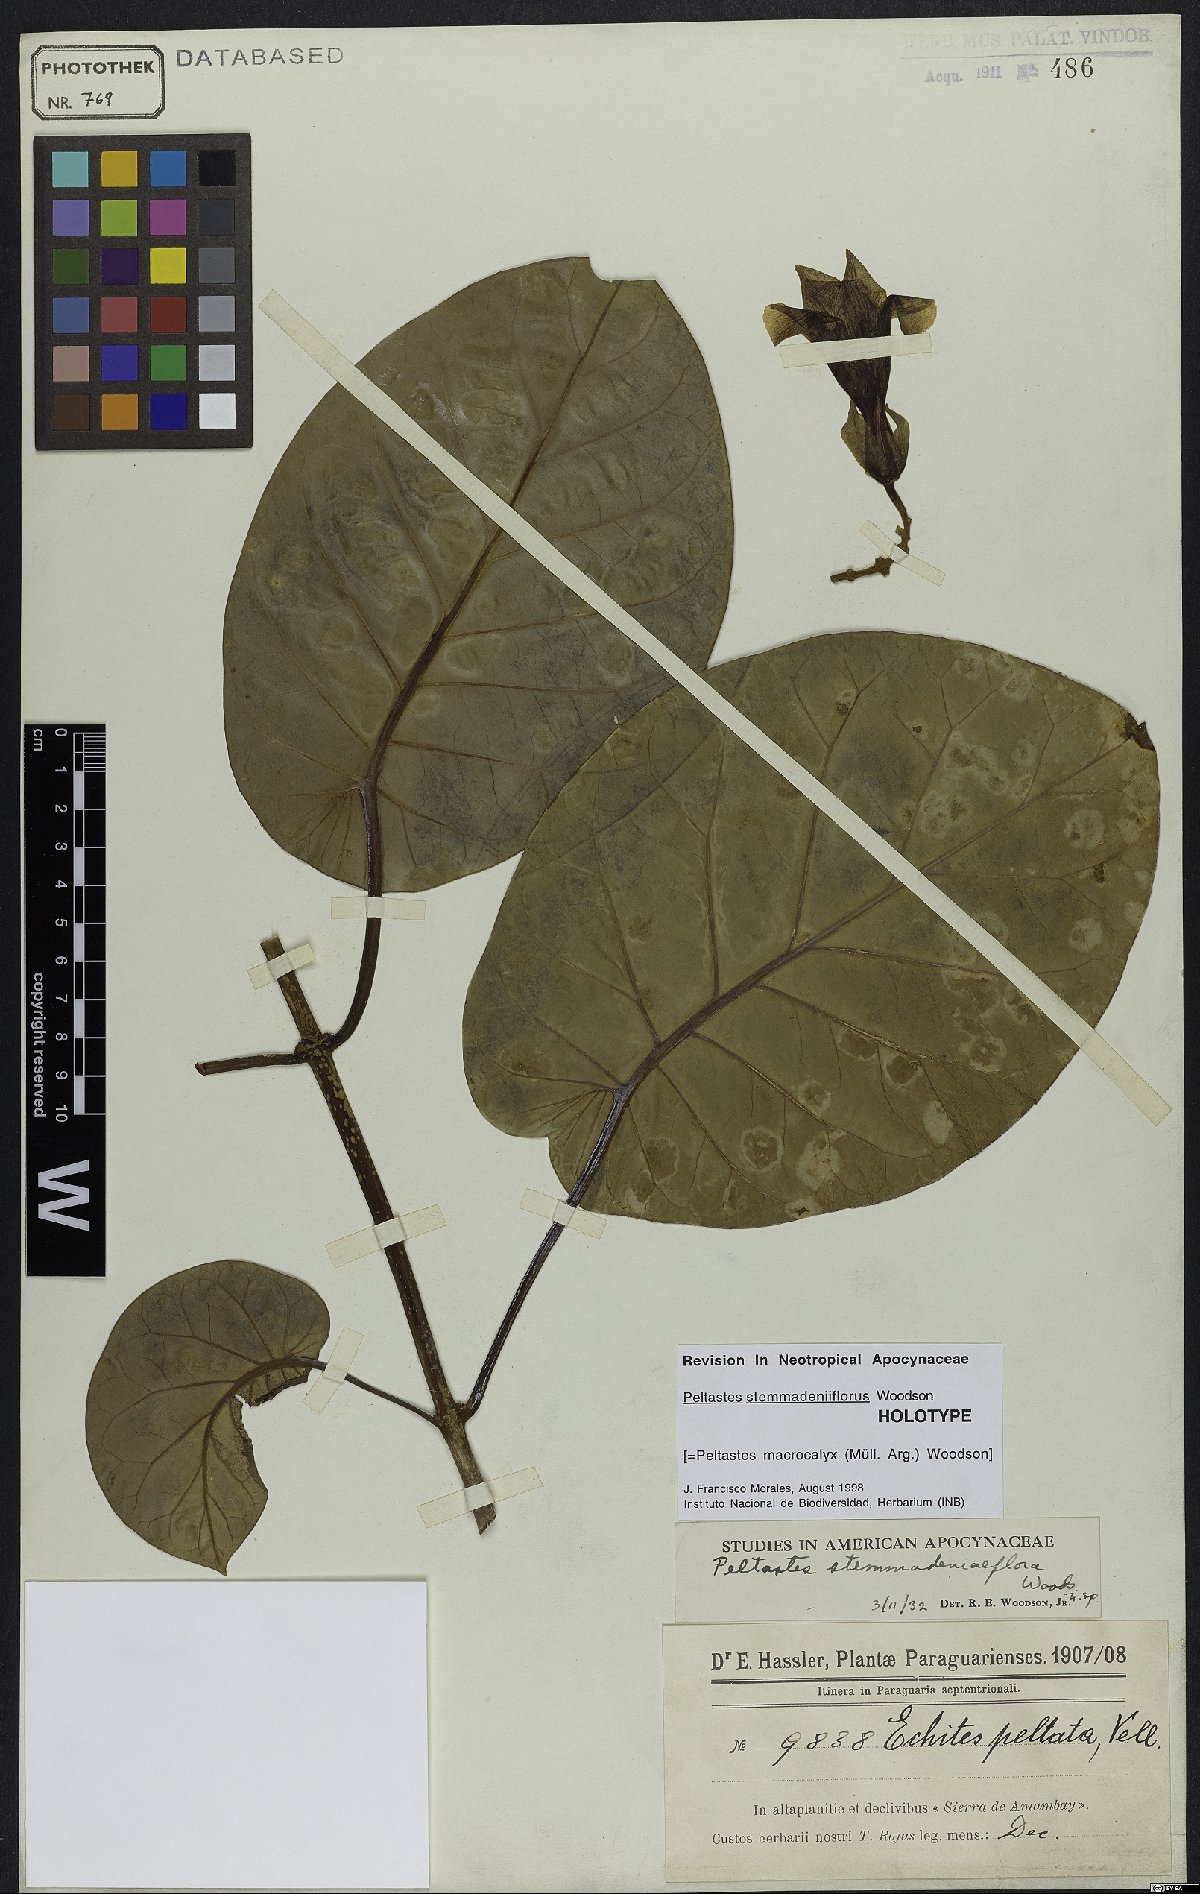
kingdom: Plantae
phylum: Tracheophyta
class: Magnoliopsida
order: Gentianales
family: Apocynaceae
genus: Macropharynx
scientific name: Macropharynx macrocalyx
